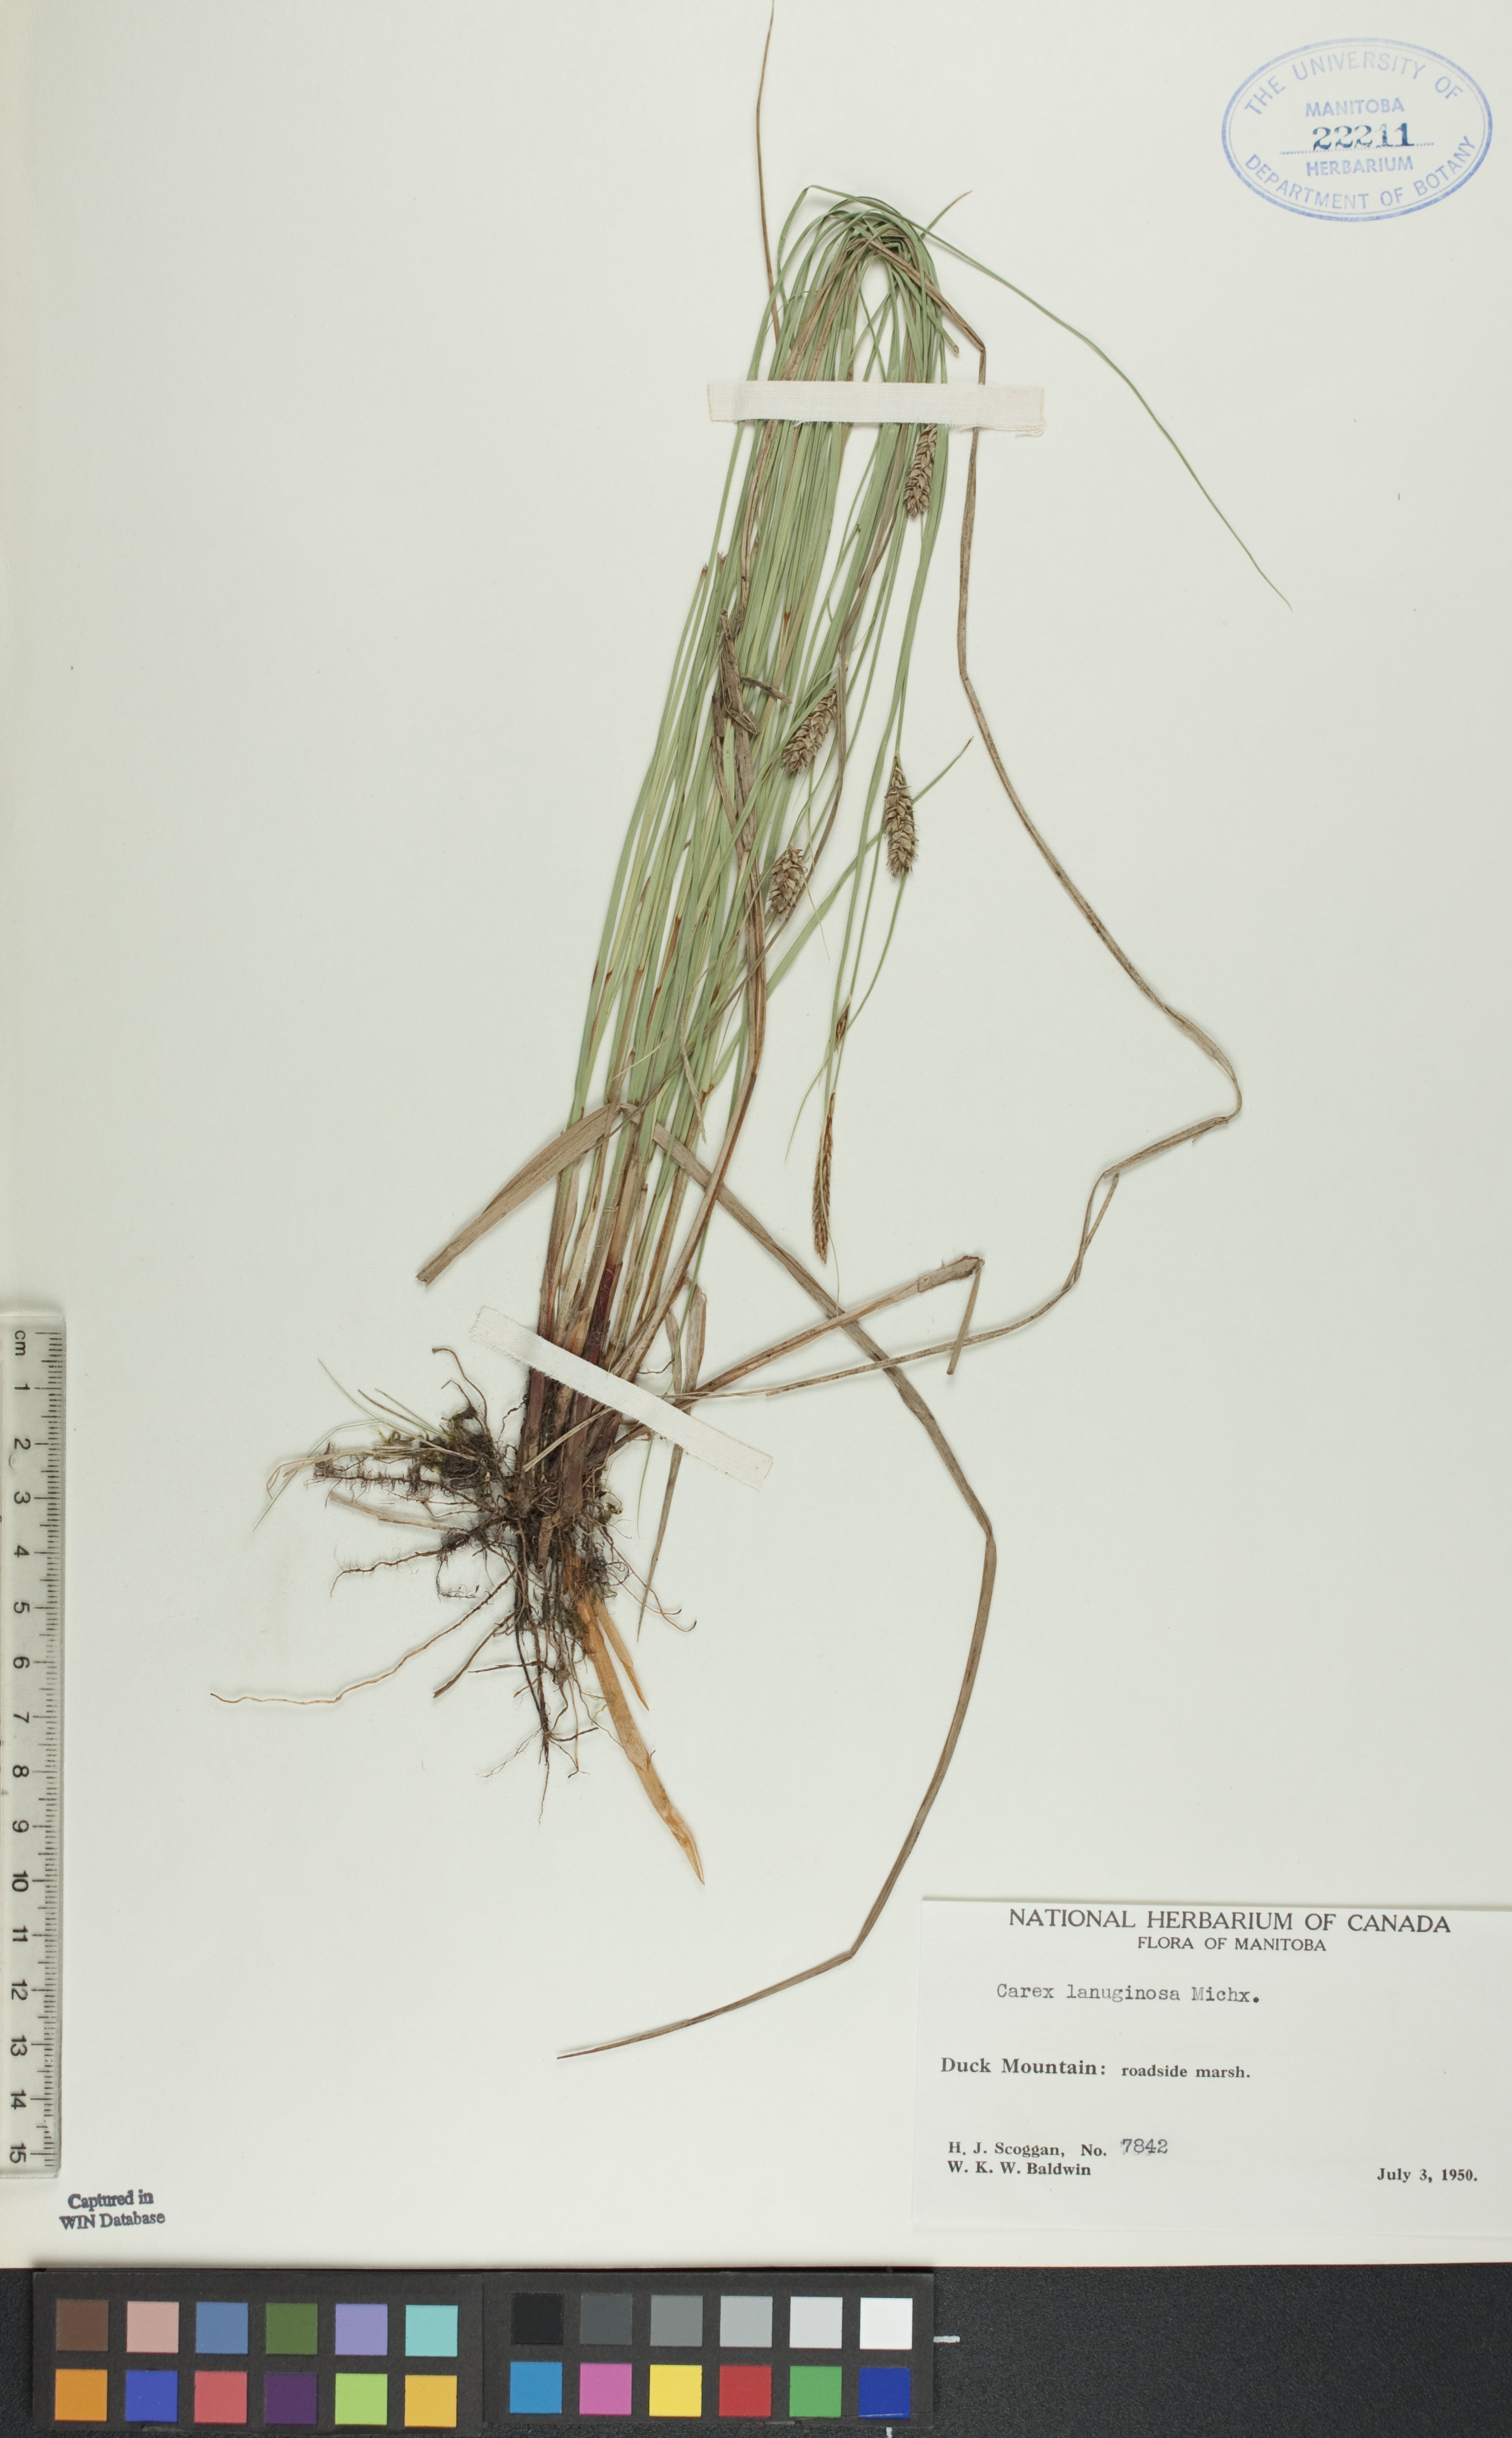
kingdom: Plantae
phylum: Tracheophyta
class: Liliopsida
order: Poales
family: Cyperaceae
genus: Carex
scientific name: Carex lasiocarpa
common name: Slender sedge
